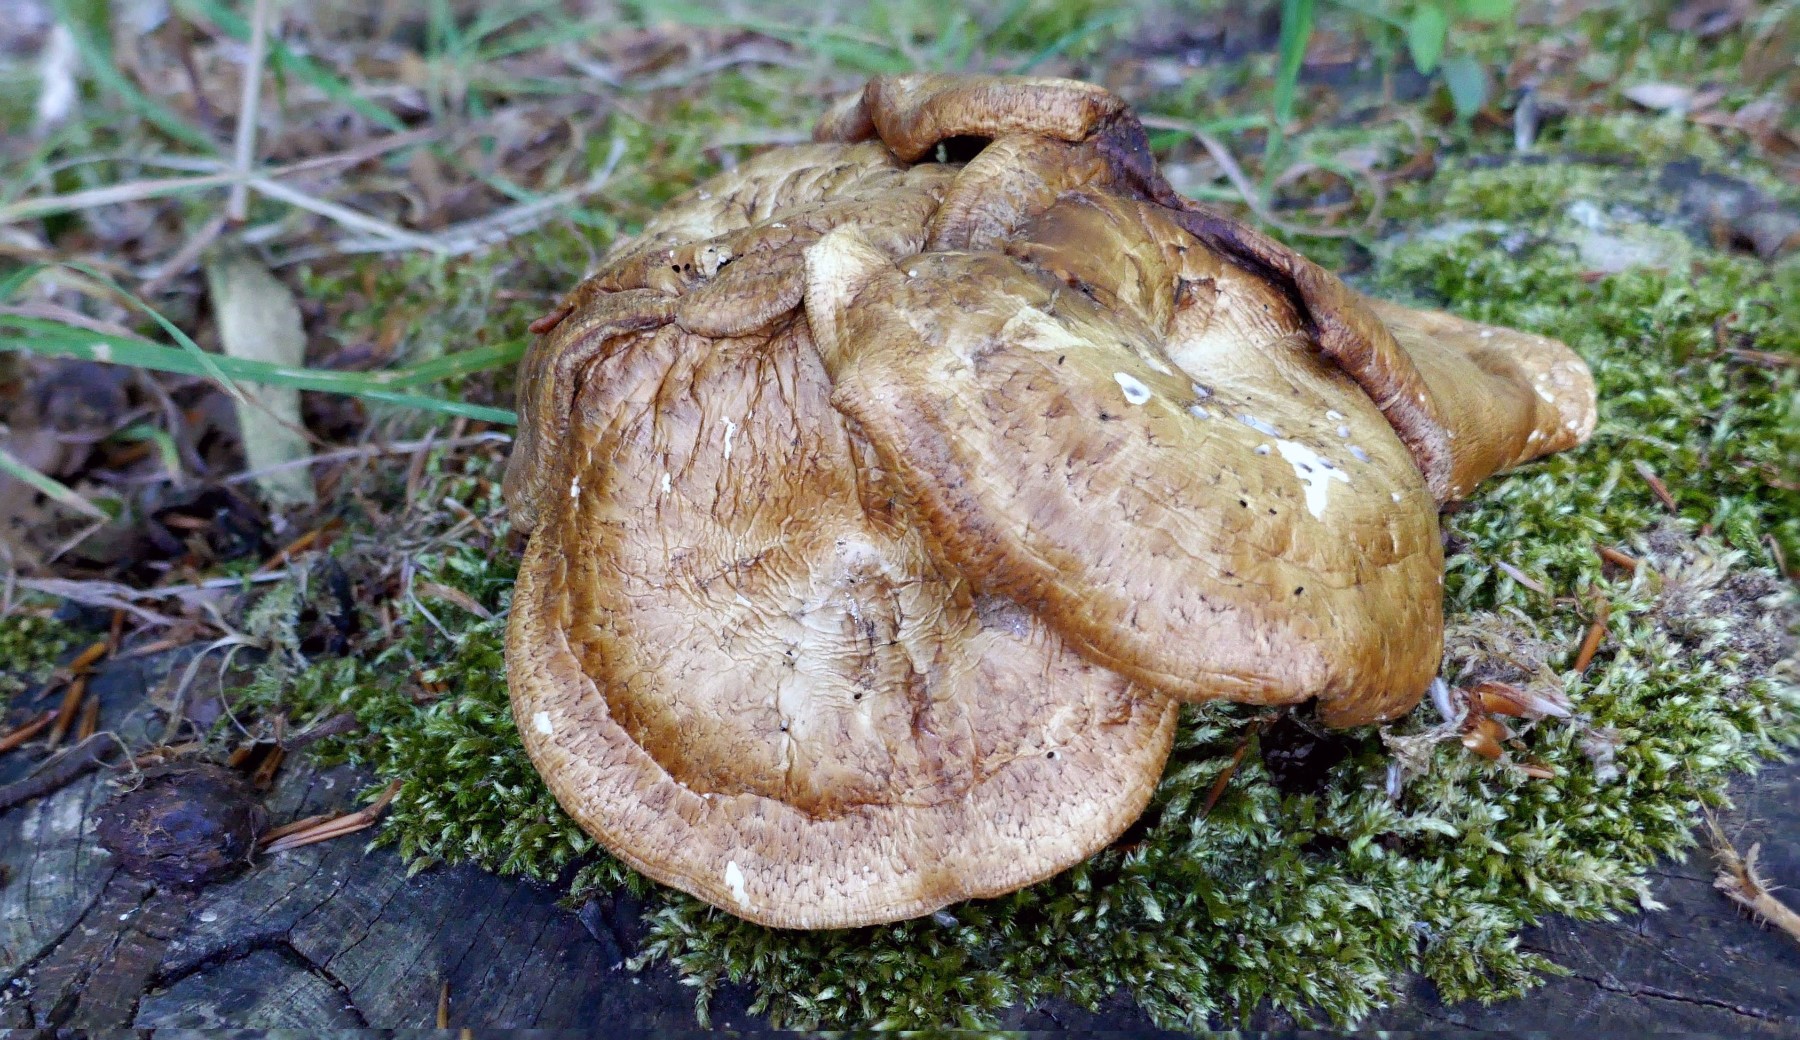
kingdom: Fungi
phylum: Basidiomycota
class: Agaricomycetes
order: Polyporales
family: Polyporaceae
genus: Polyporus
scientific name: Polyporus tuberaster
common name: knoldet stilkporesvamp
